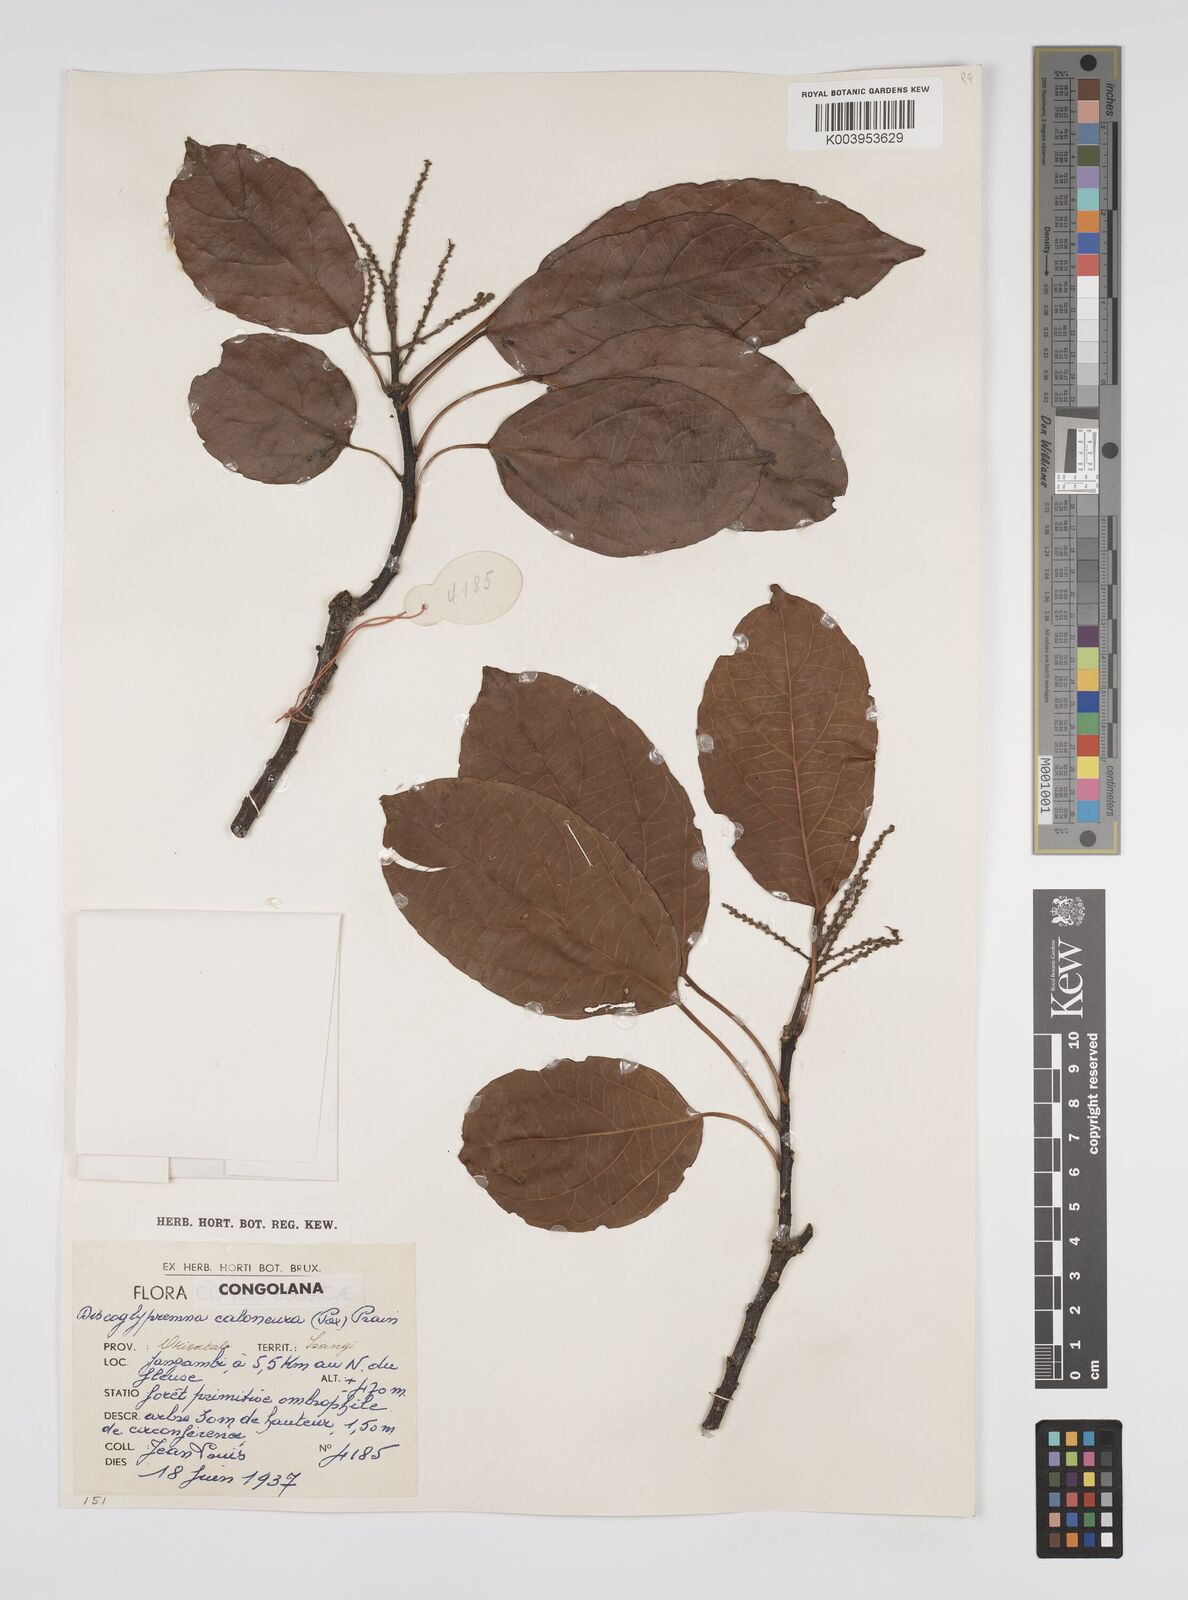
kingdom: Plantae
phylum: Tracheophyta
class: Magnoliopsida
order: Malpighiales
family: Euphorbiaceae
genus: Discoglypremna
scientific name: Discoglypremna caloneura
